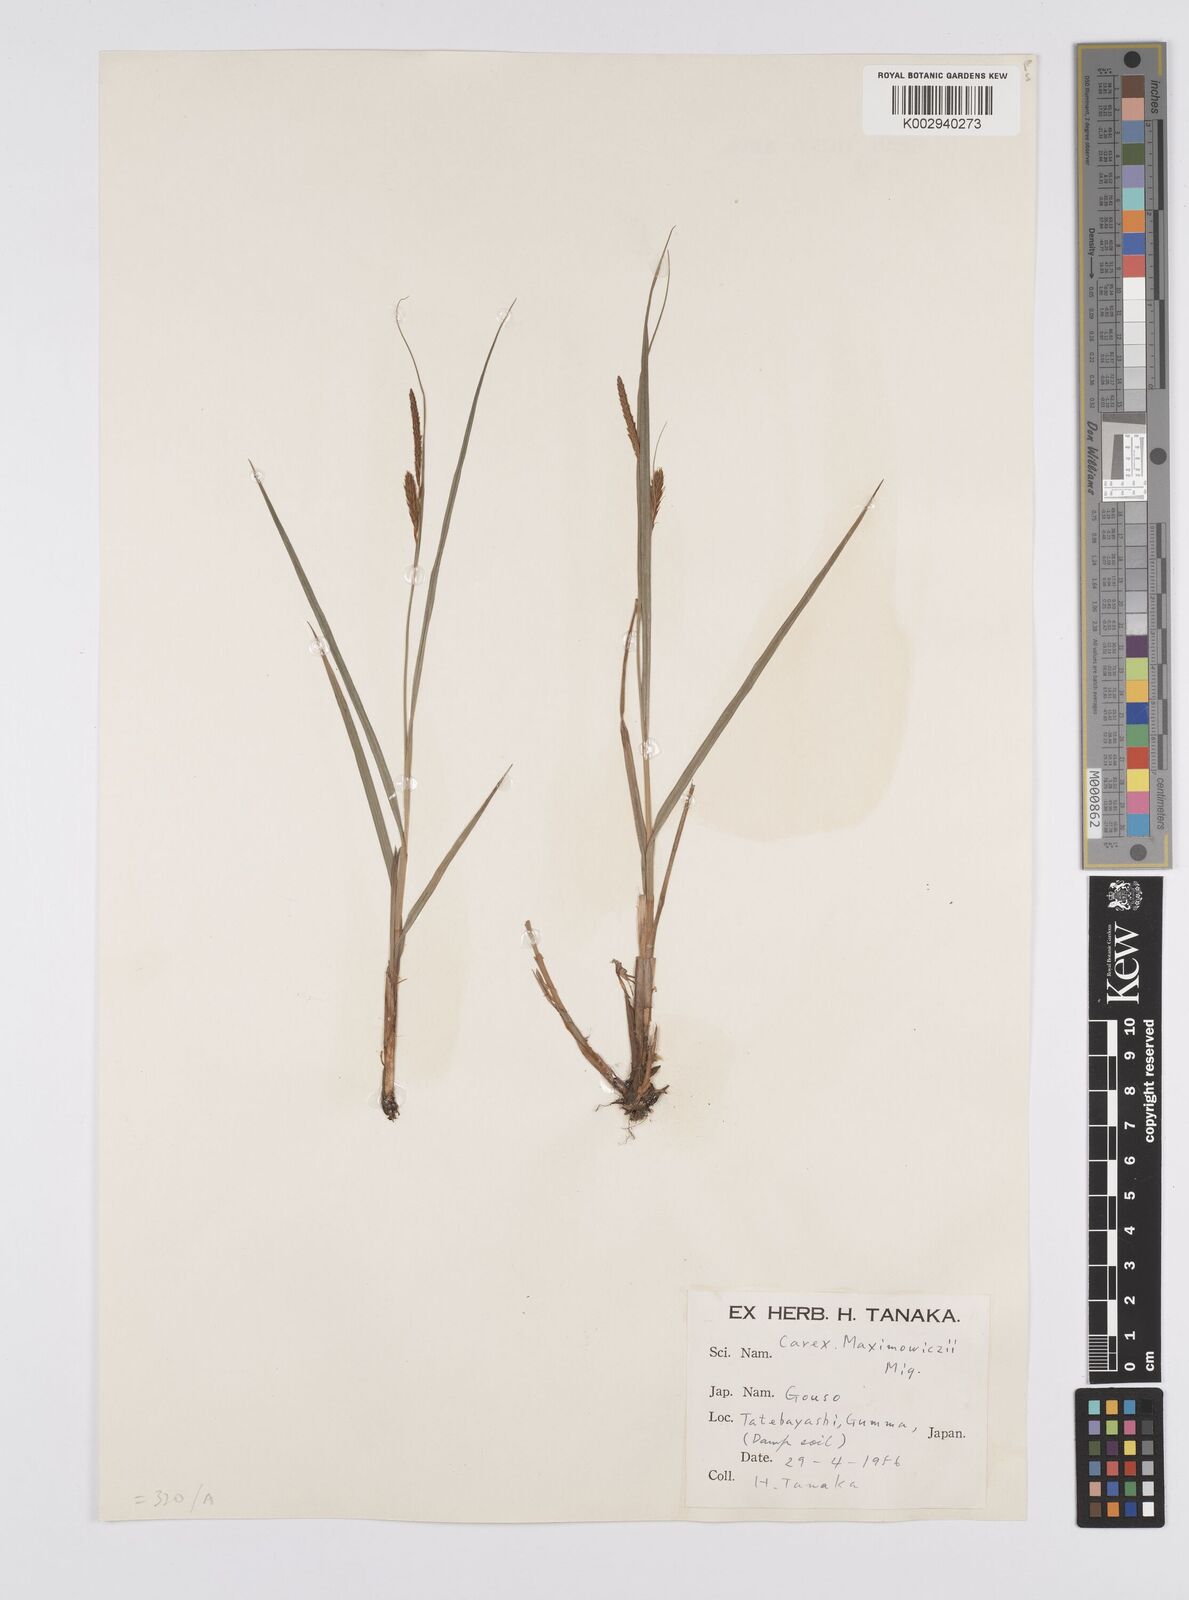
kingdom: Plantae
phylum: Tracheophyta
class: Liliopsida
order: Poales
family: Cyperaceae
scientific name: Cyperaceae
